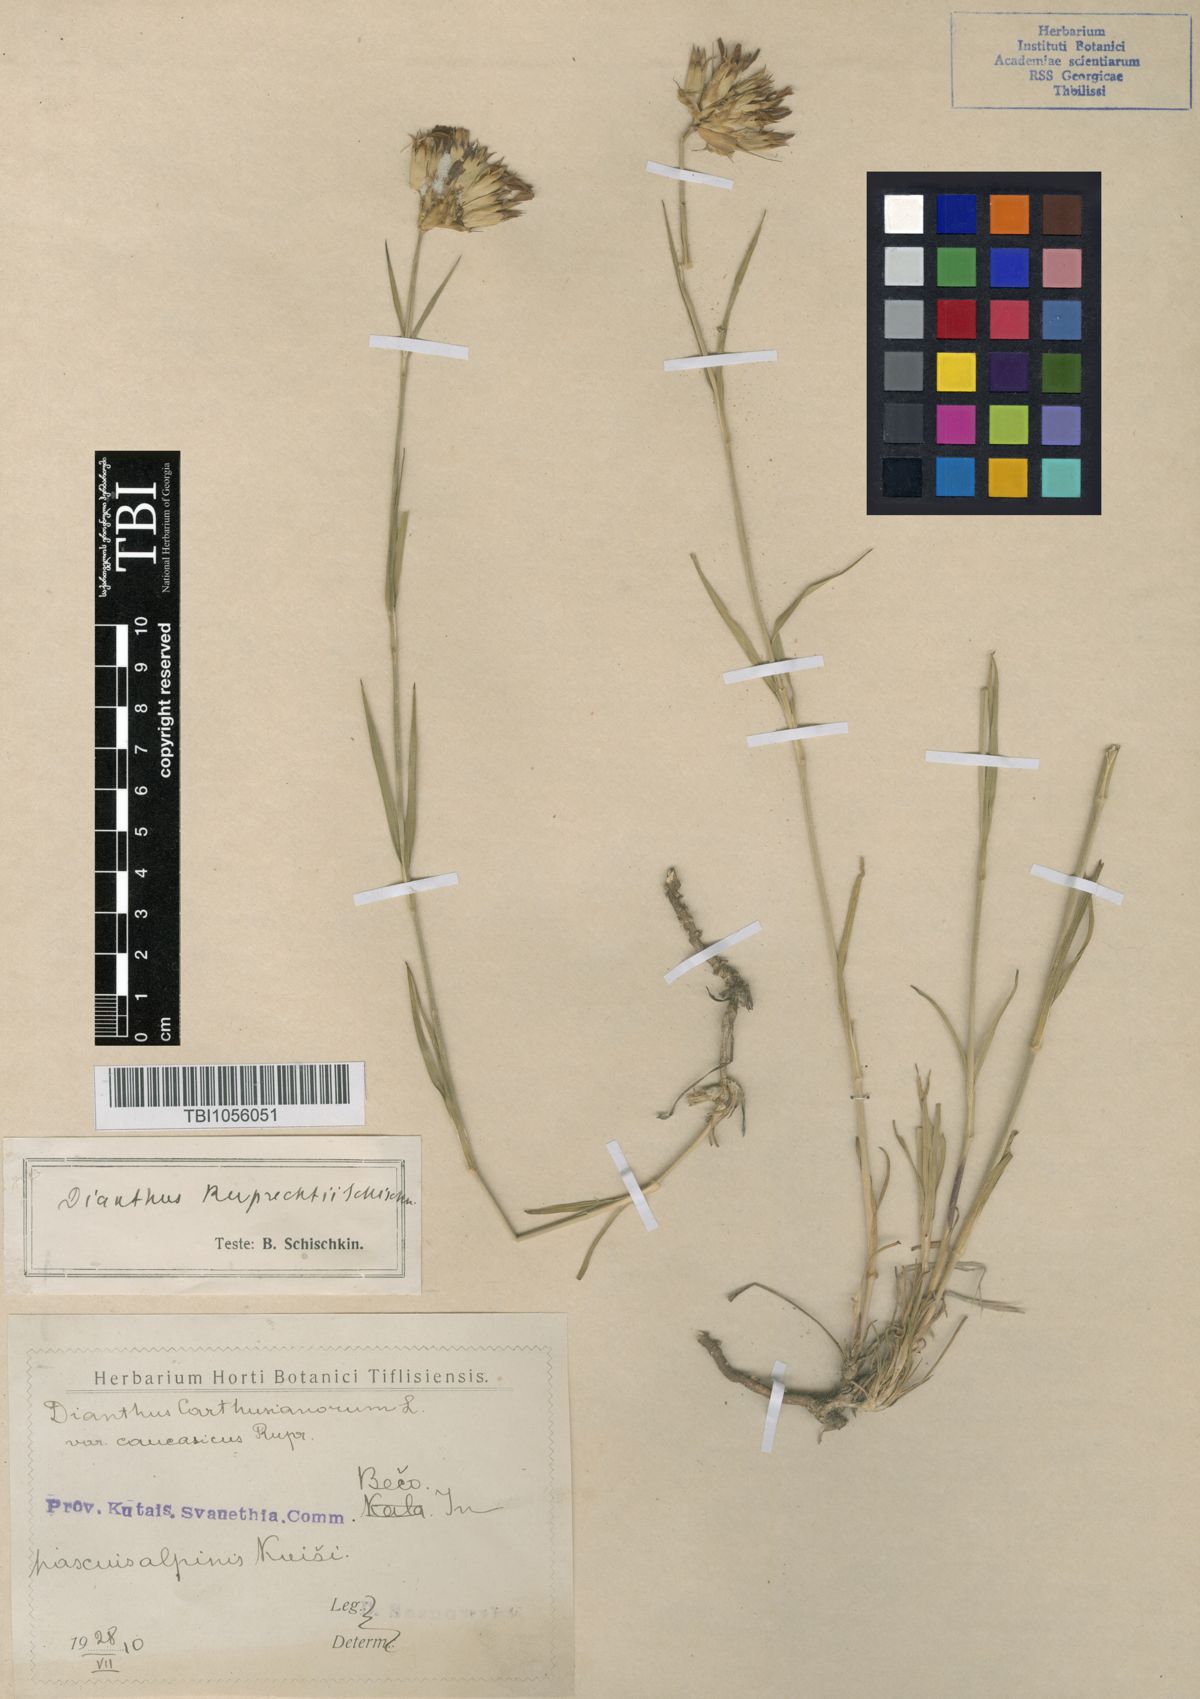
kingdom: Plantae
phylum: Tracheophyta
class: Magnoliopsida
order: Caryophyllales
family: Caryophyllaceae
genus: Dianthus
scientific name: Dianthus ruprechtii
